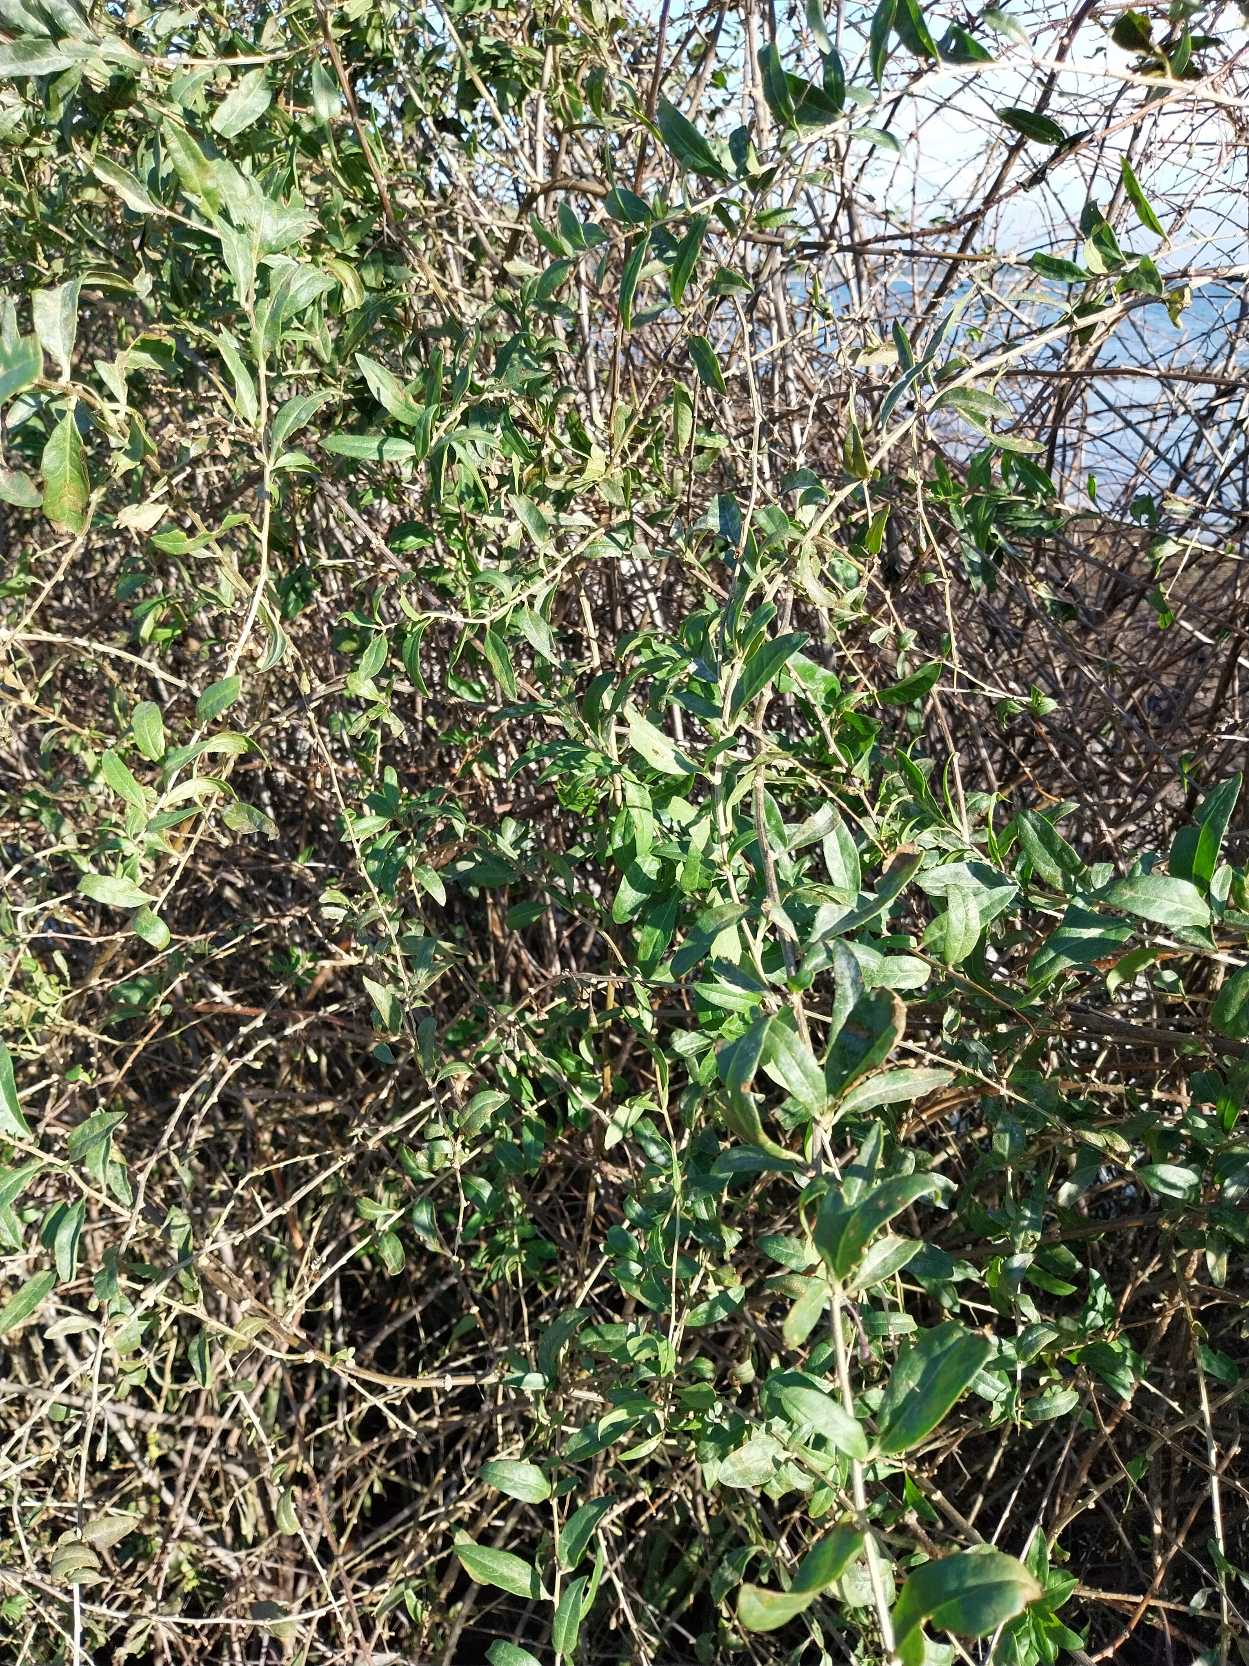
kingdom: Plantae
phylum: Tracheophyta
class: Magnoliopsida
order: Solanales
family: Solanaceae
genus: Lycium
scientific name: Lycium barbarum
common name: Bukketorn
